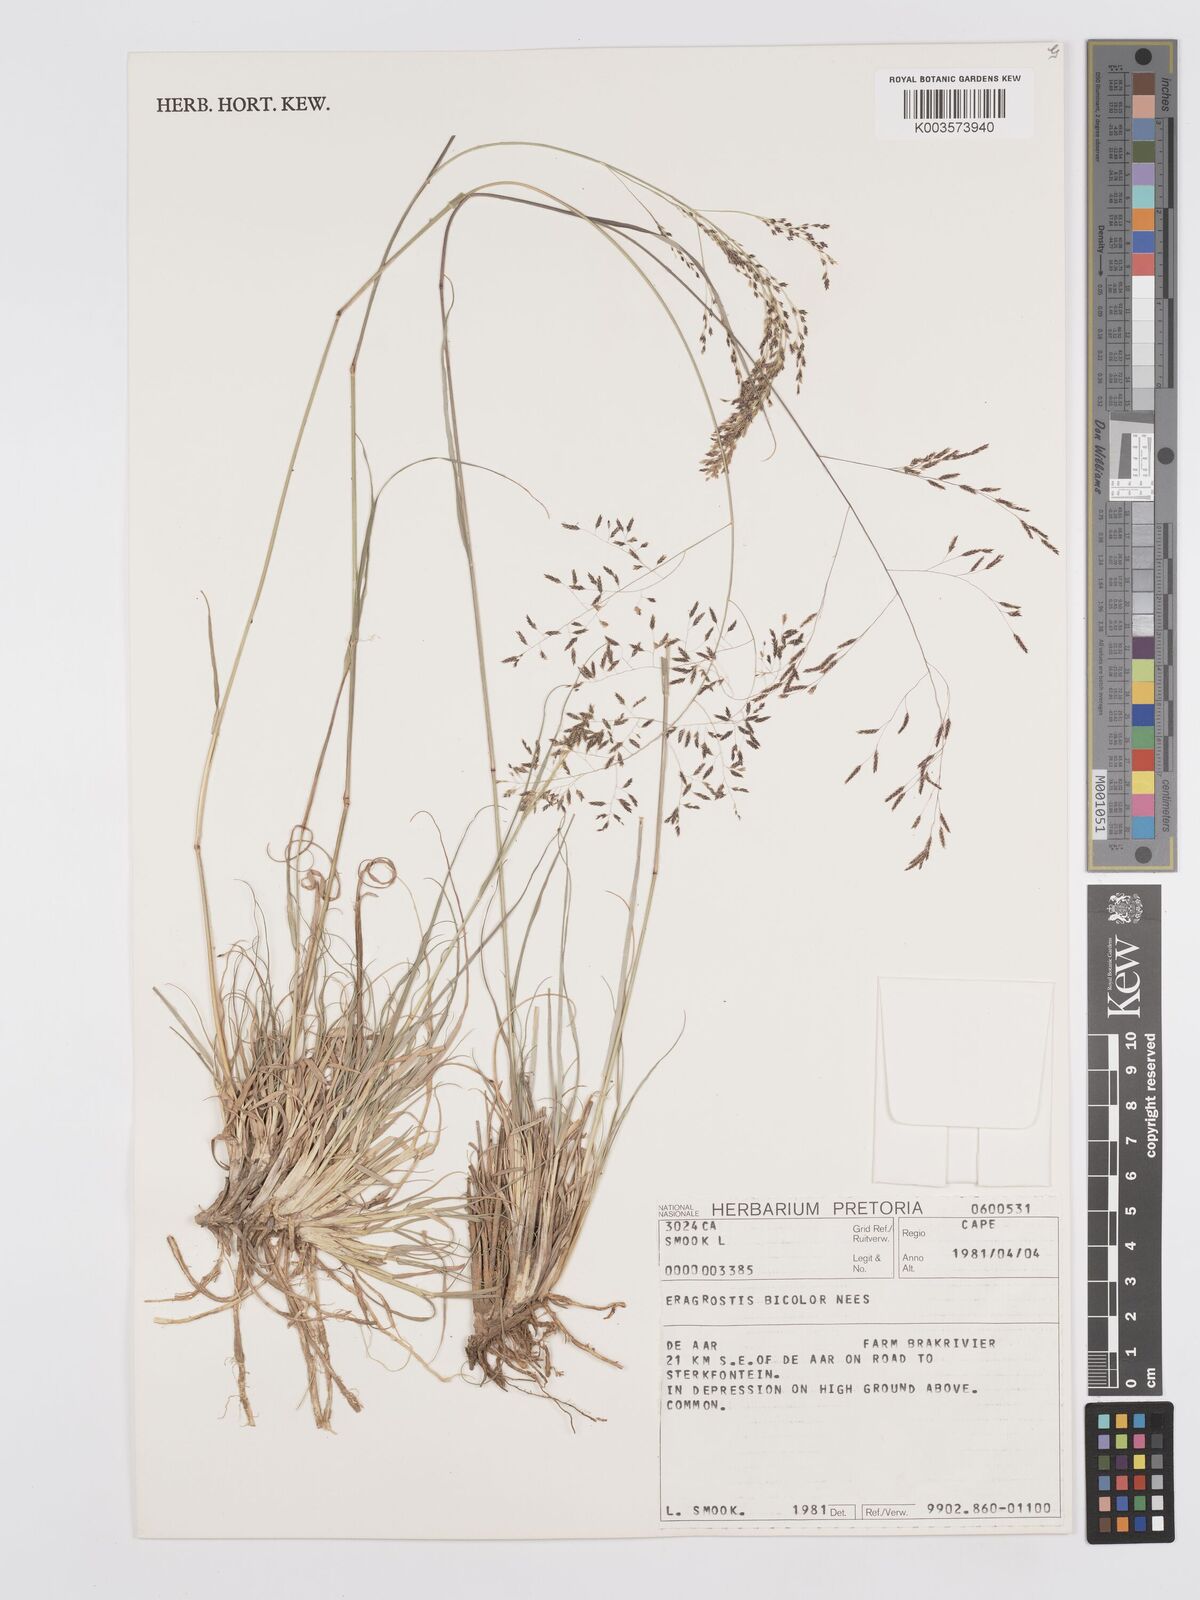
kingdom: Plantae
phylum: Tracheophyta
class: Liliopsida
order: Poales
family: Poaceae
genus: Eragrostis
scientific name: Eragrostis
